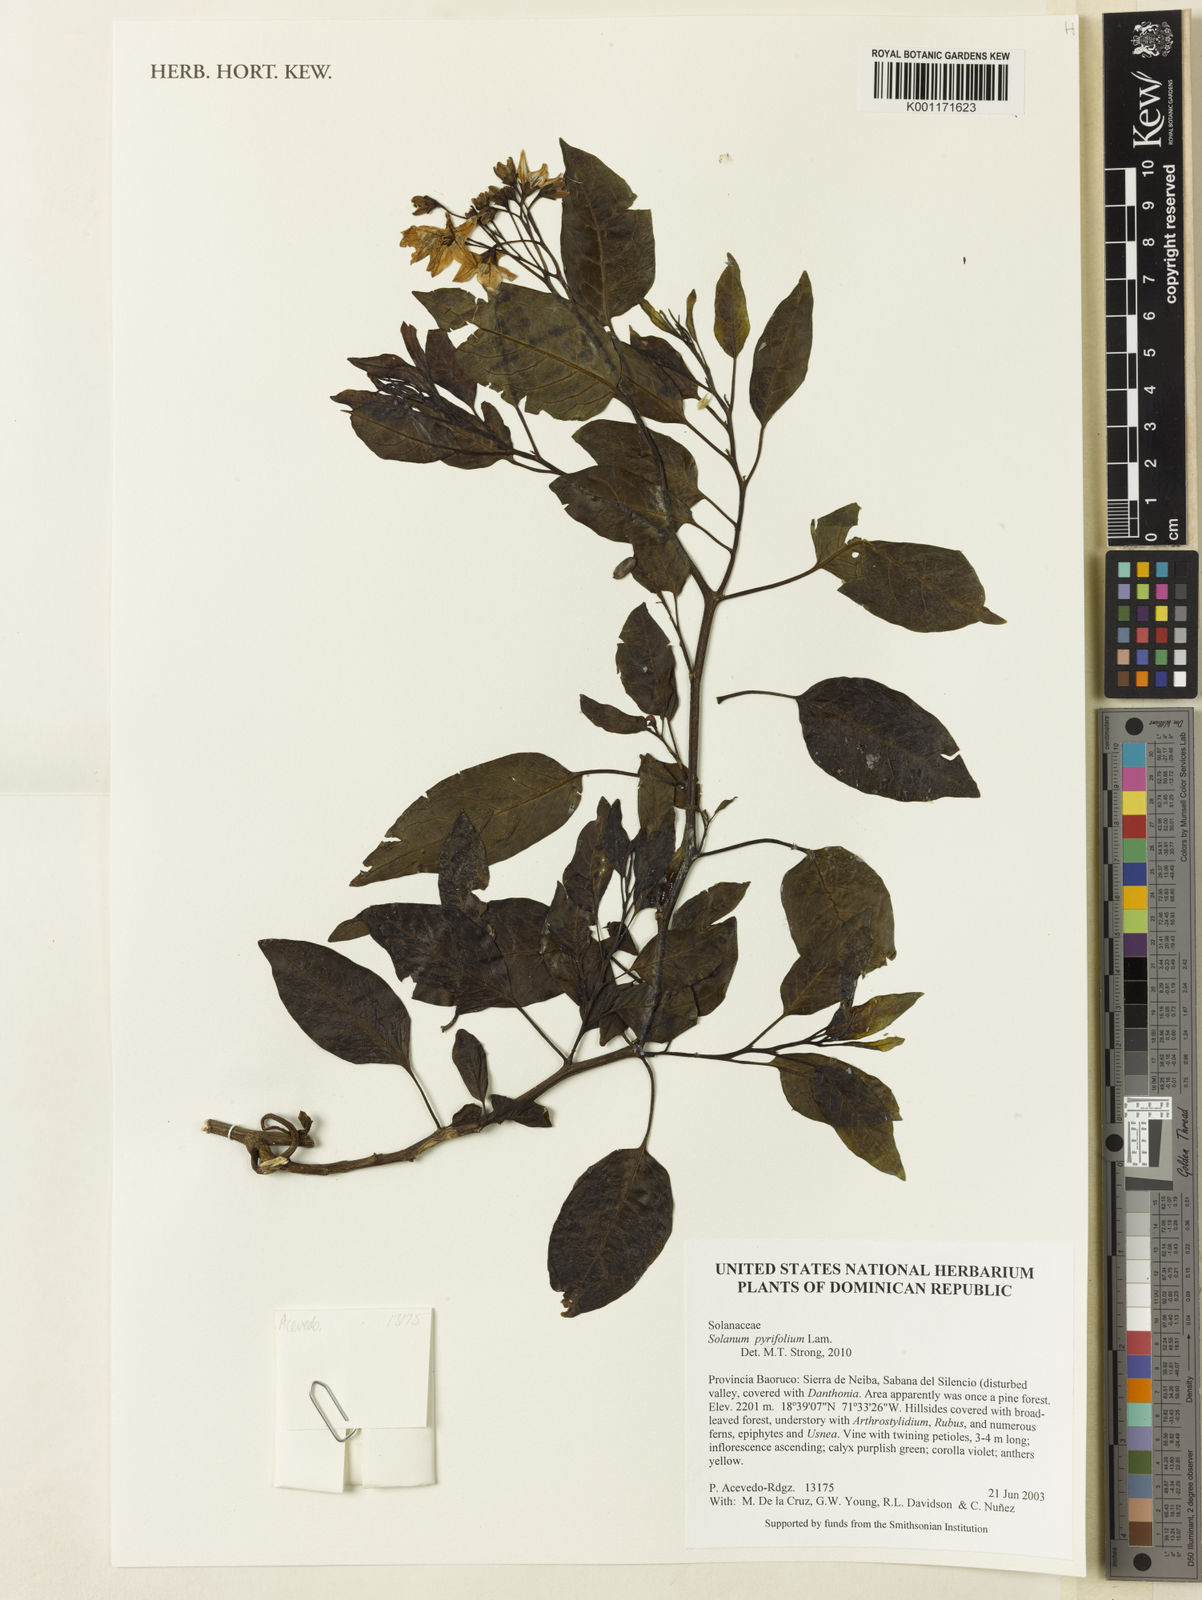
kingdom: Plantae
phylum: Tracheophyta
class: Magnoliopsida
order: Solanales
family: Solanaceae
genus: Solanum
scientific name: Solanum pyrifolium
